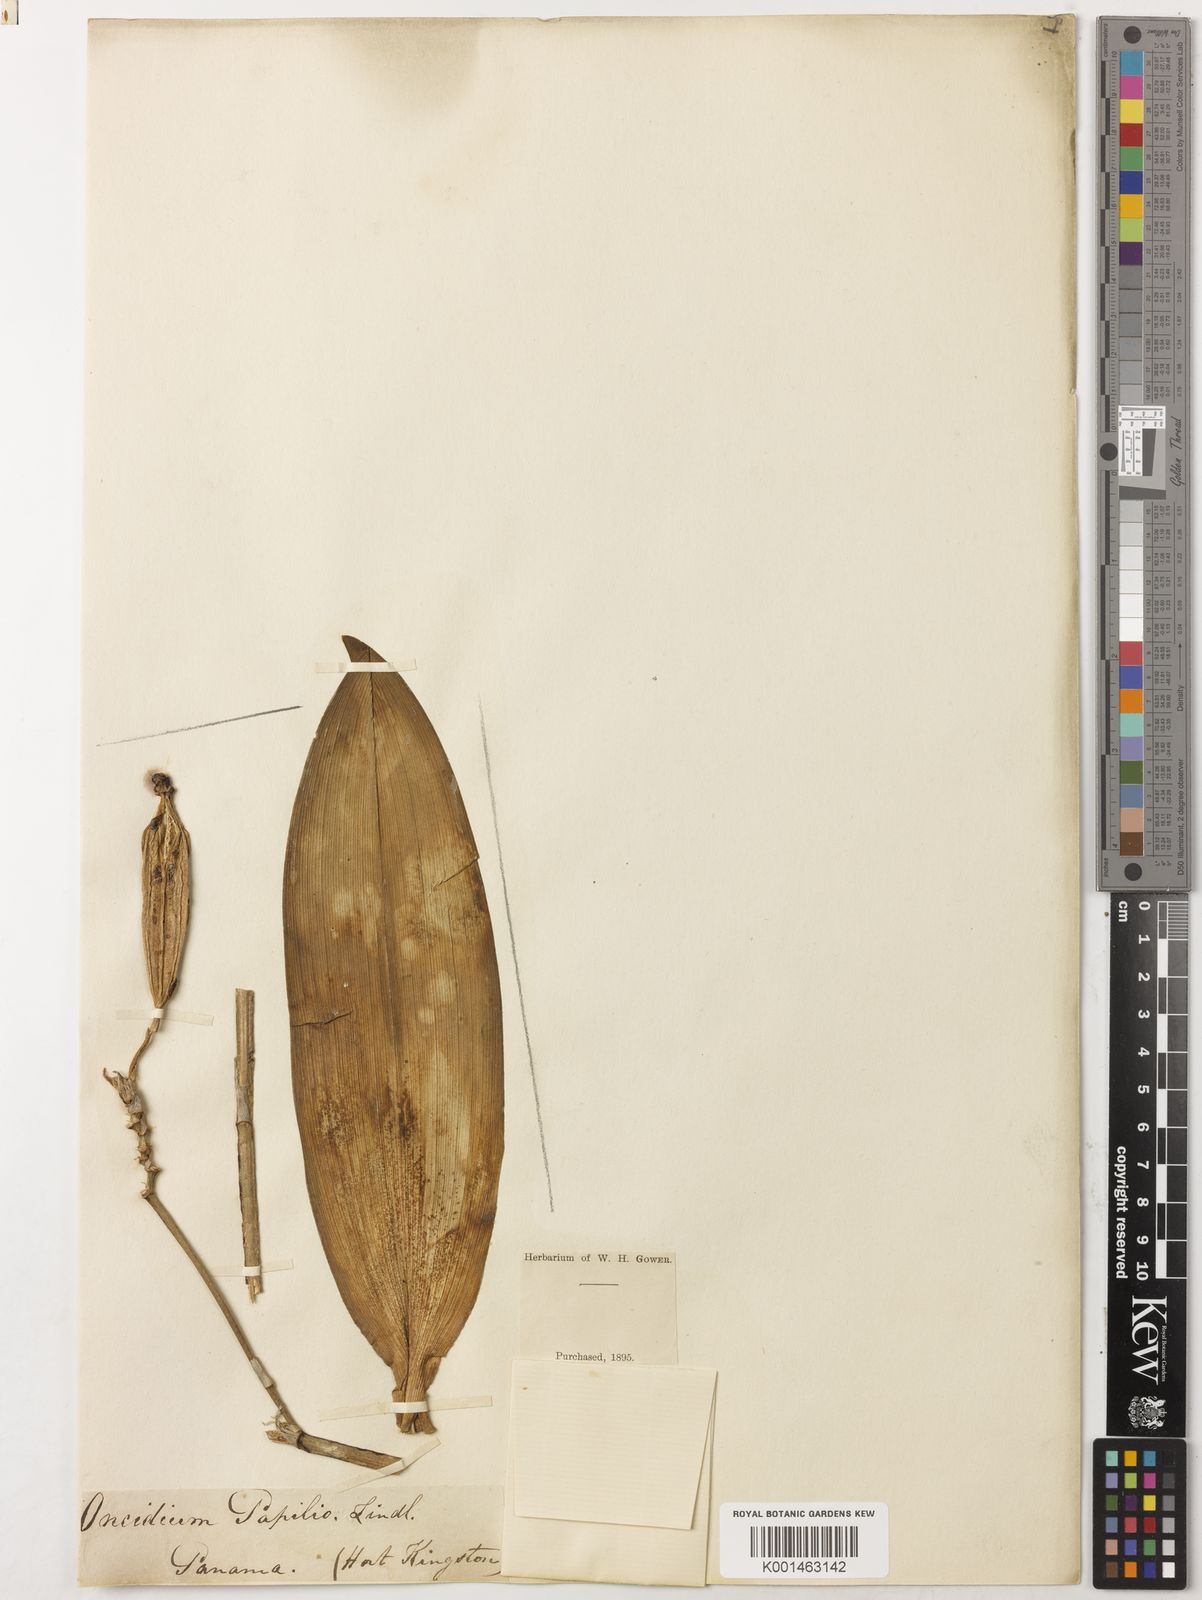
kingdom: Plantae
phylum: Tracheophyta
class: Liliopsida
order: Asparagales
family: Orchidaceae
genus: Psychopsis
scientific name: Psychopsis papilio
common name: Butterfly orchid
